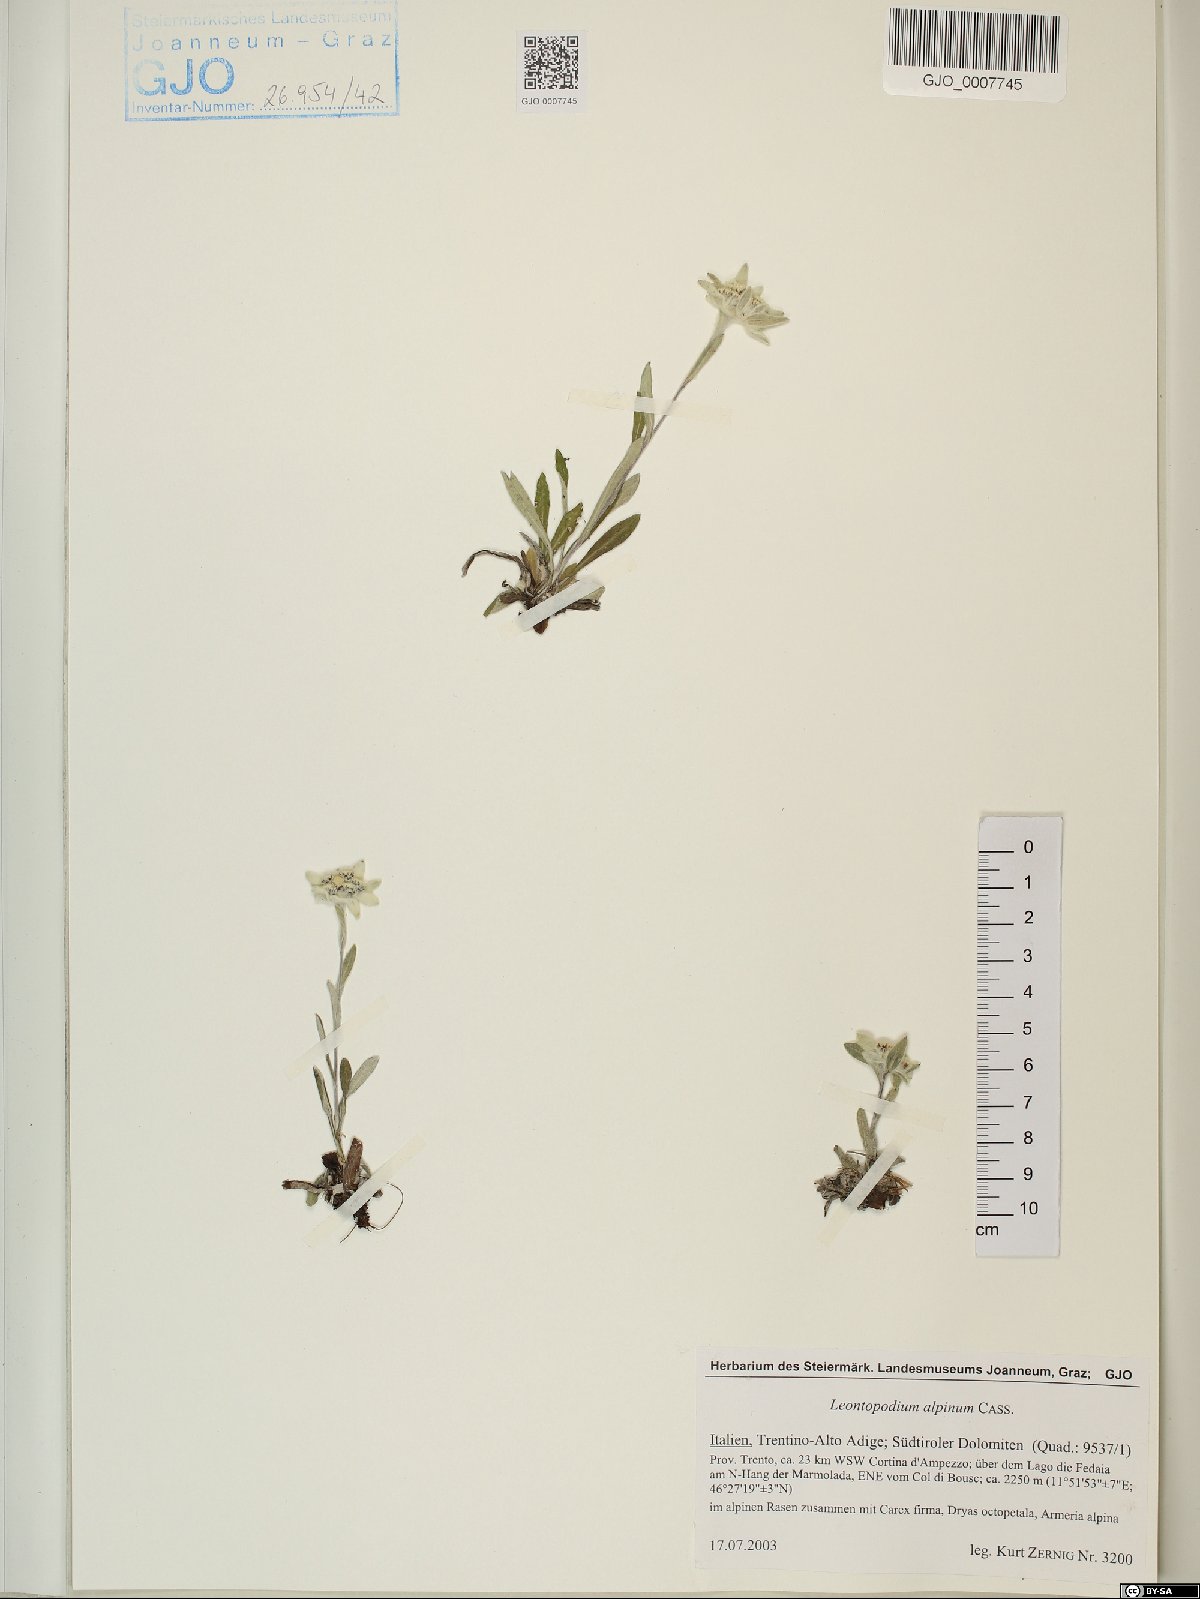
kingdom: Plantae
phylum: Tracheophyta
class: Magnoliopsida
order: Asterales
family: Asteraceae
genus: Leontopodium
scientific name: Leontopodium nivale
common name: Edelweiss
